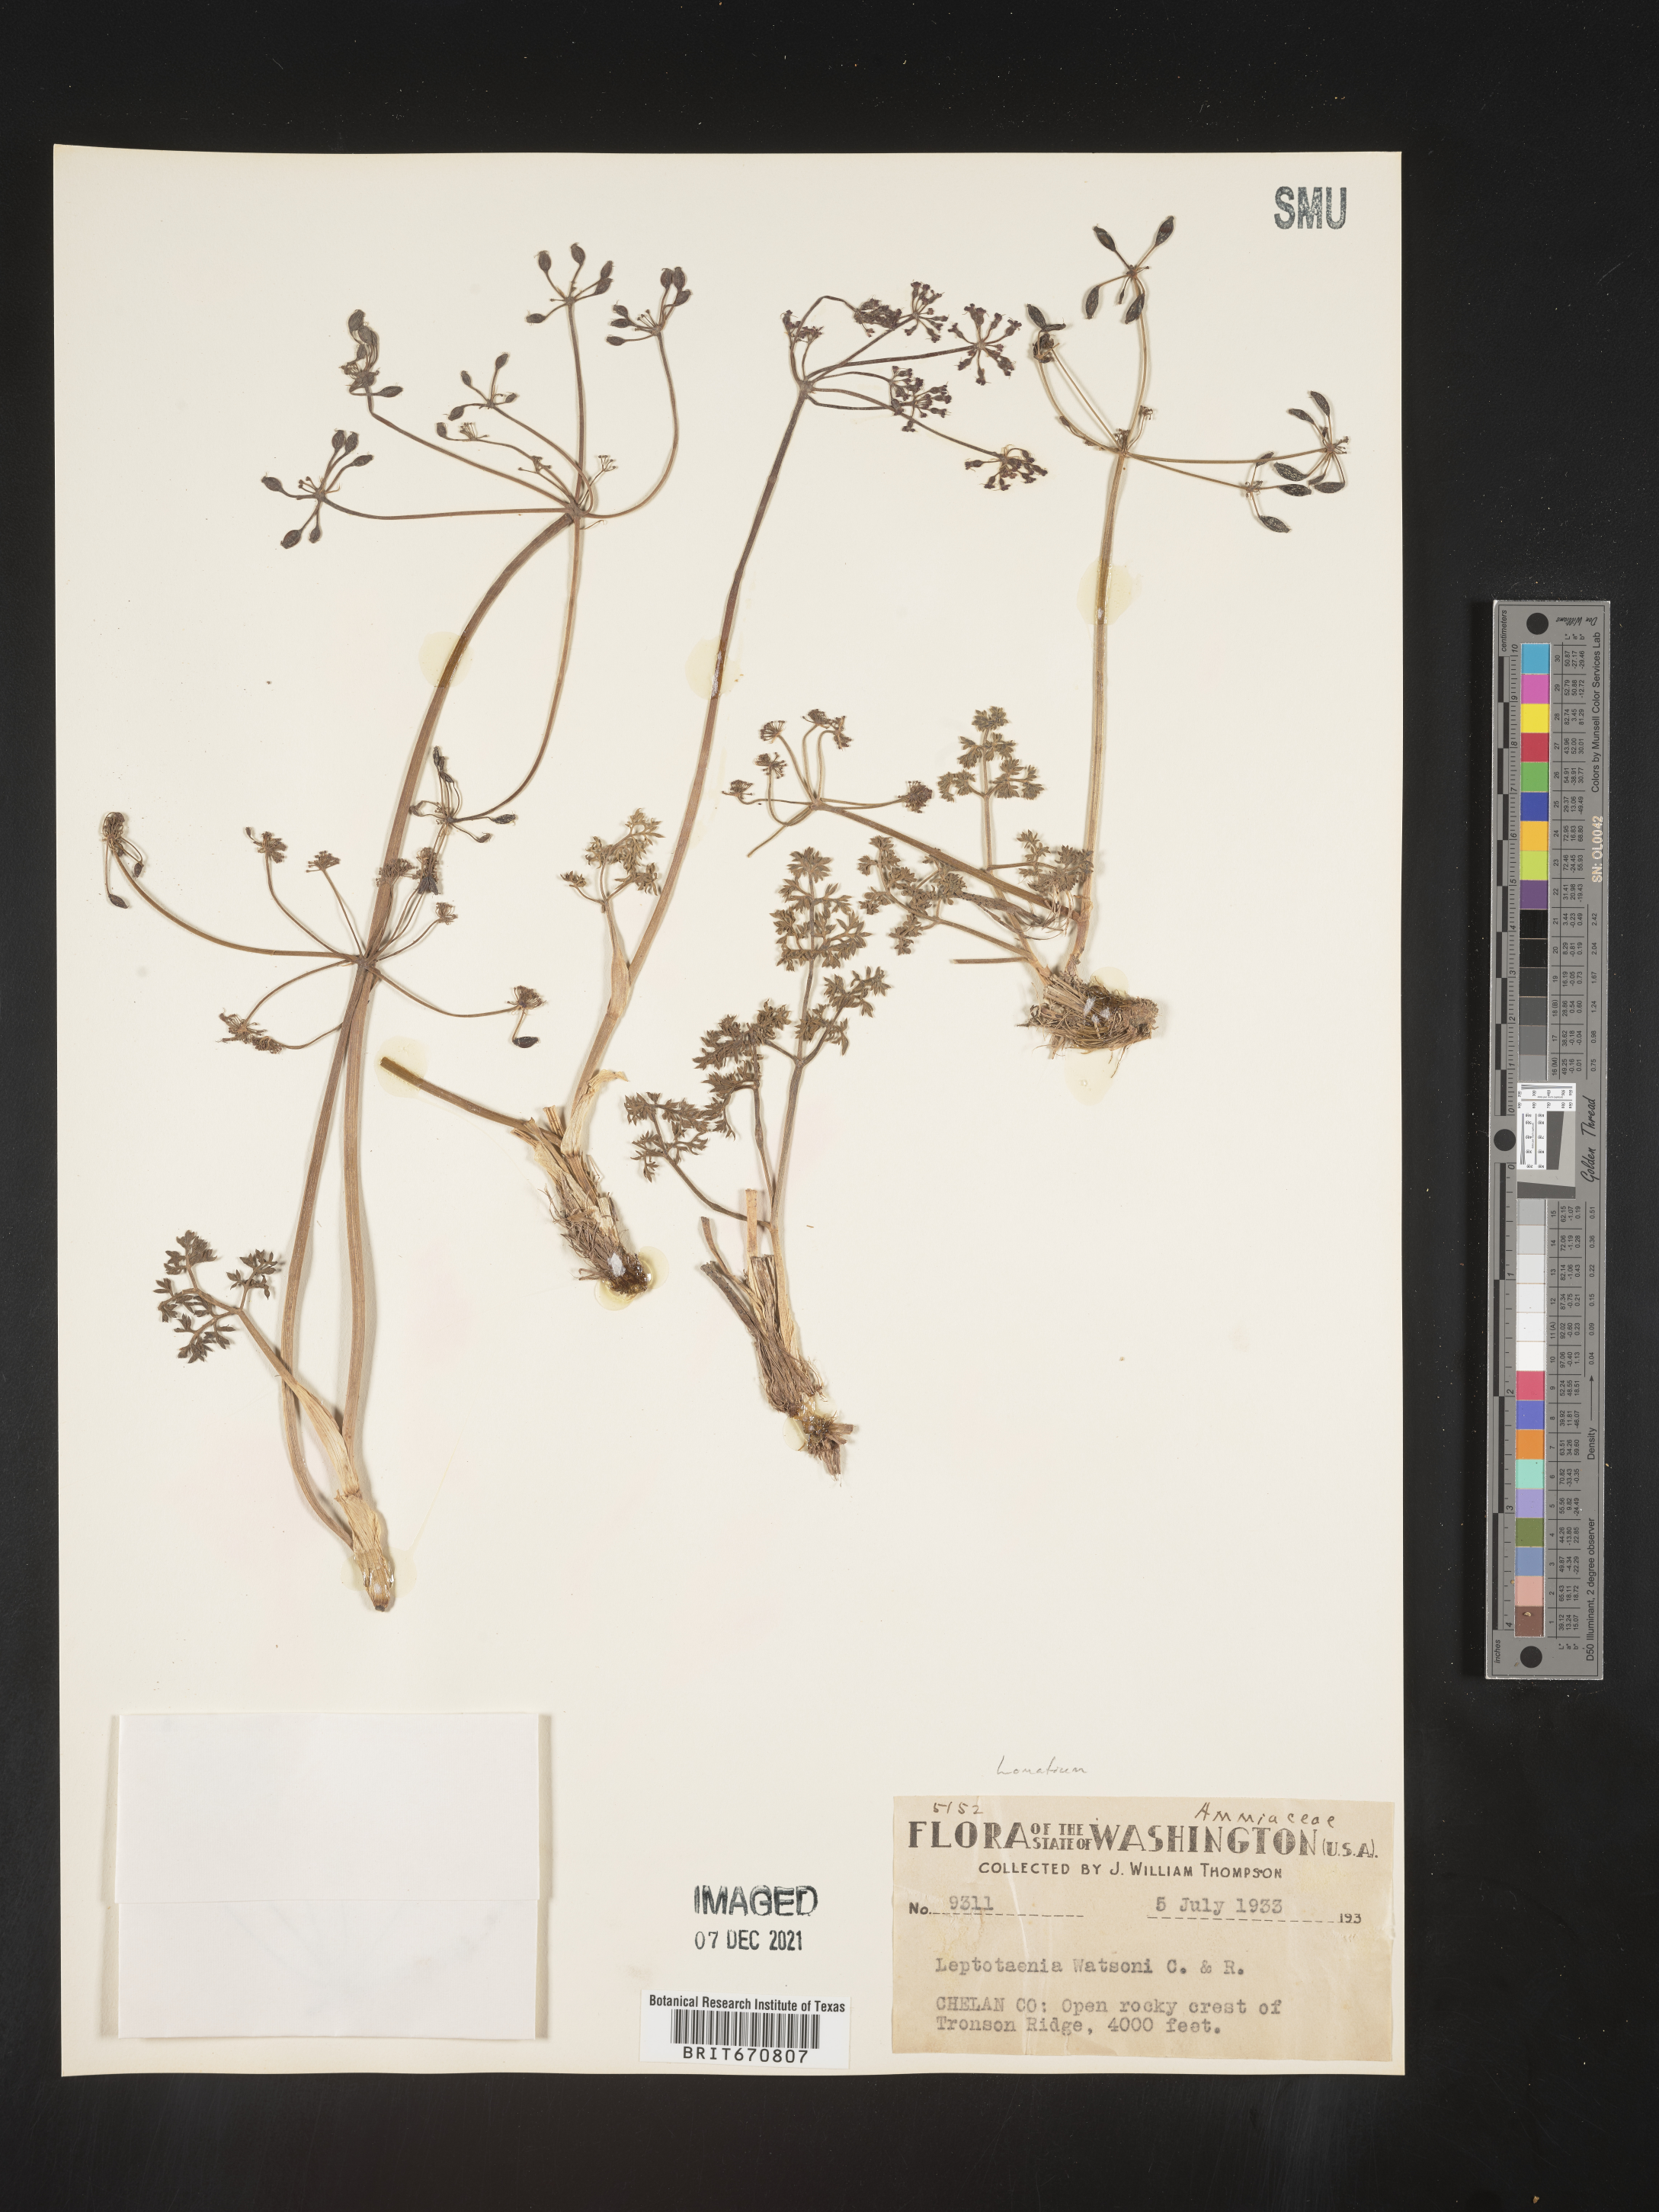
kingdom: Plantae
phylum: Tracheophyta
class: Magnoliopsida
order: Apiales
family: Apiaceae
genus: Lomatium
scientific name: Lomatium watsonii
